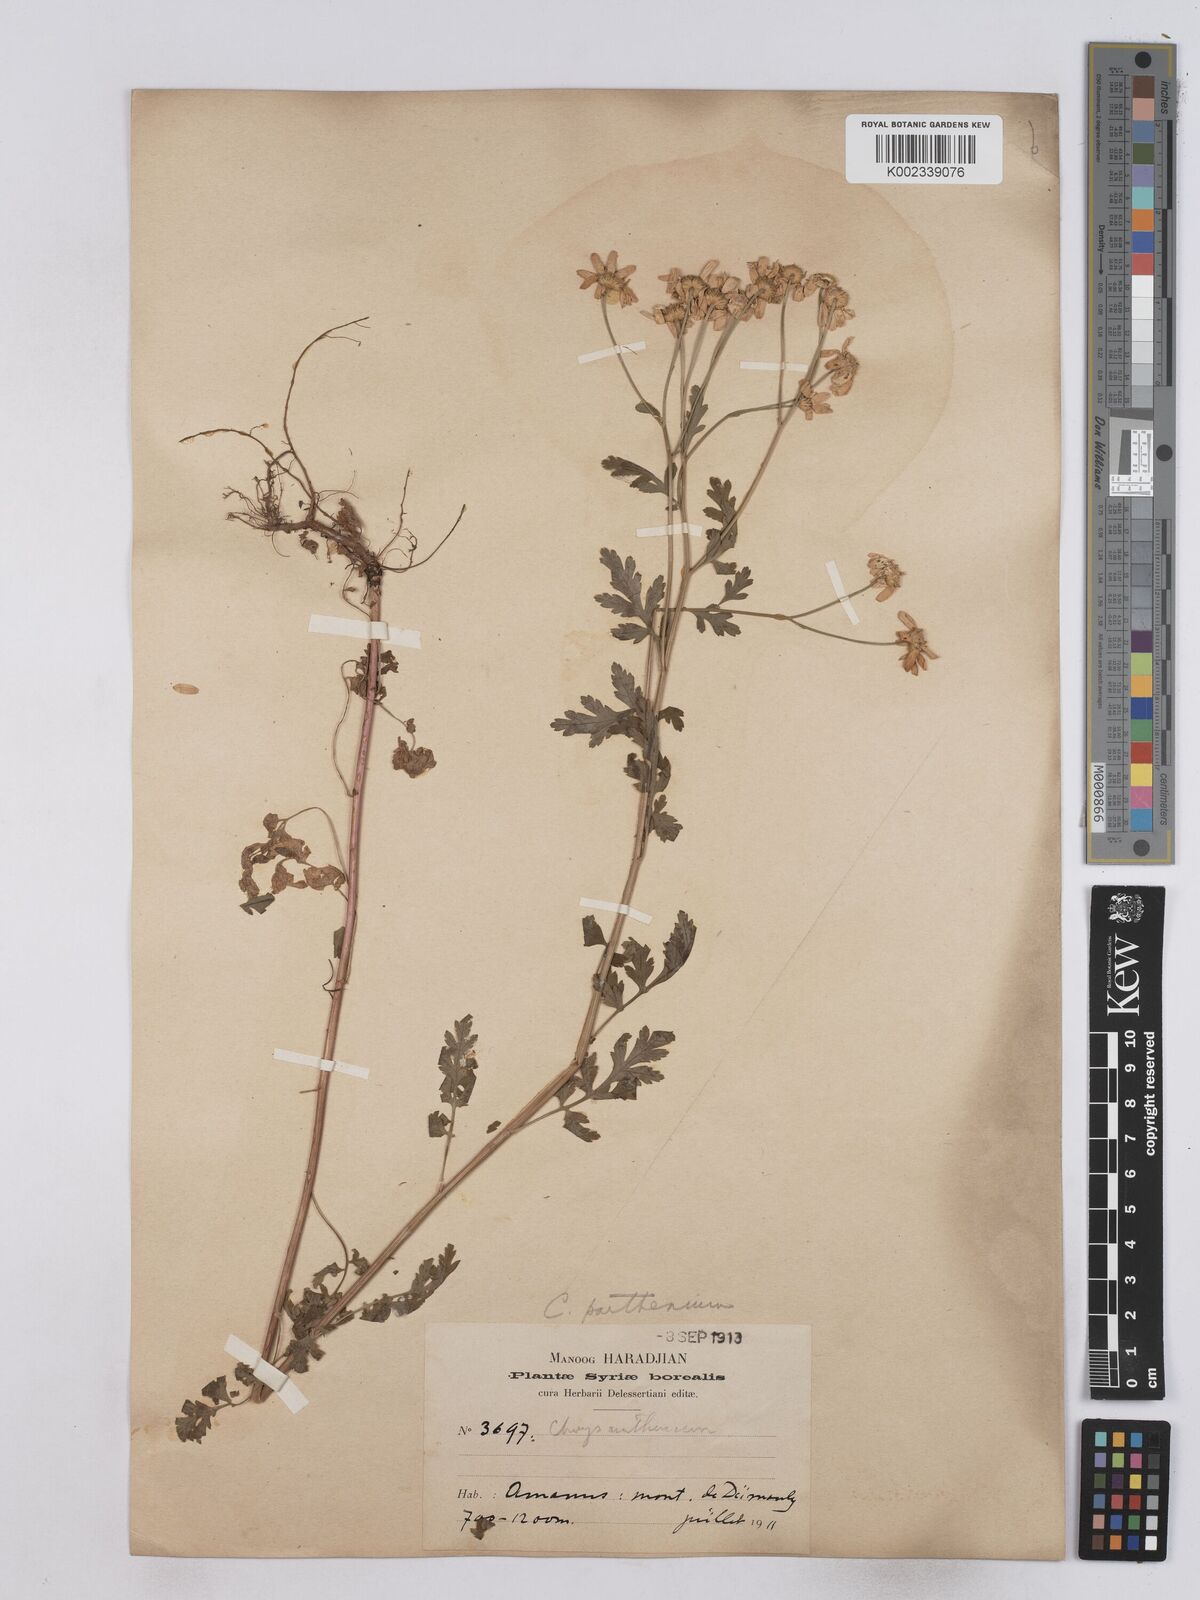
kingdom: Plantae
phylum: Tracheophyta
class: Magnoliopsida
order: Asterales
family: Asteraceae
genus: Tanacetum
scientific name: Tanacetum parthenium
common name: Feverfew
